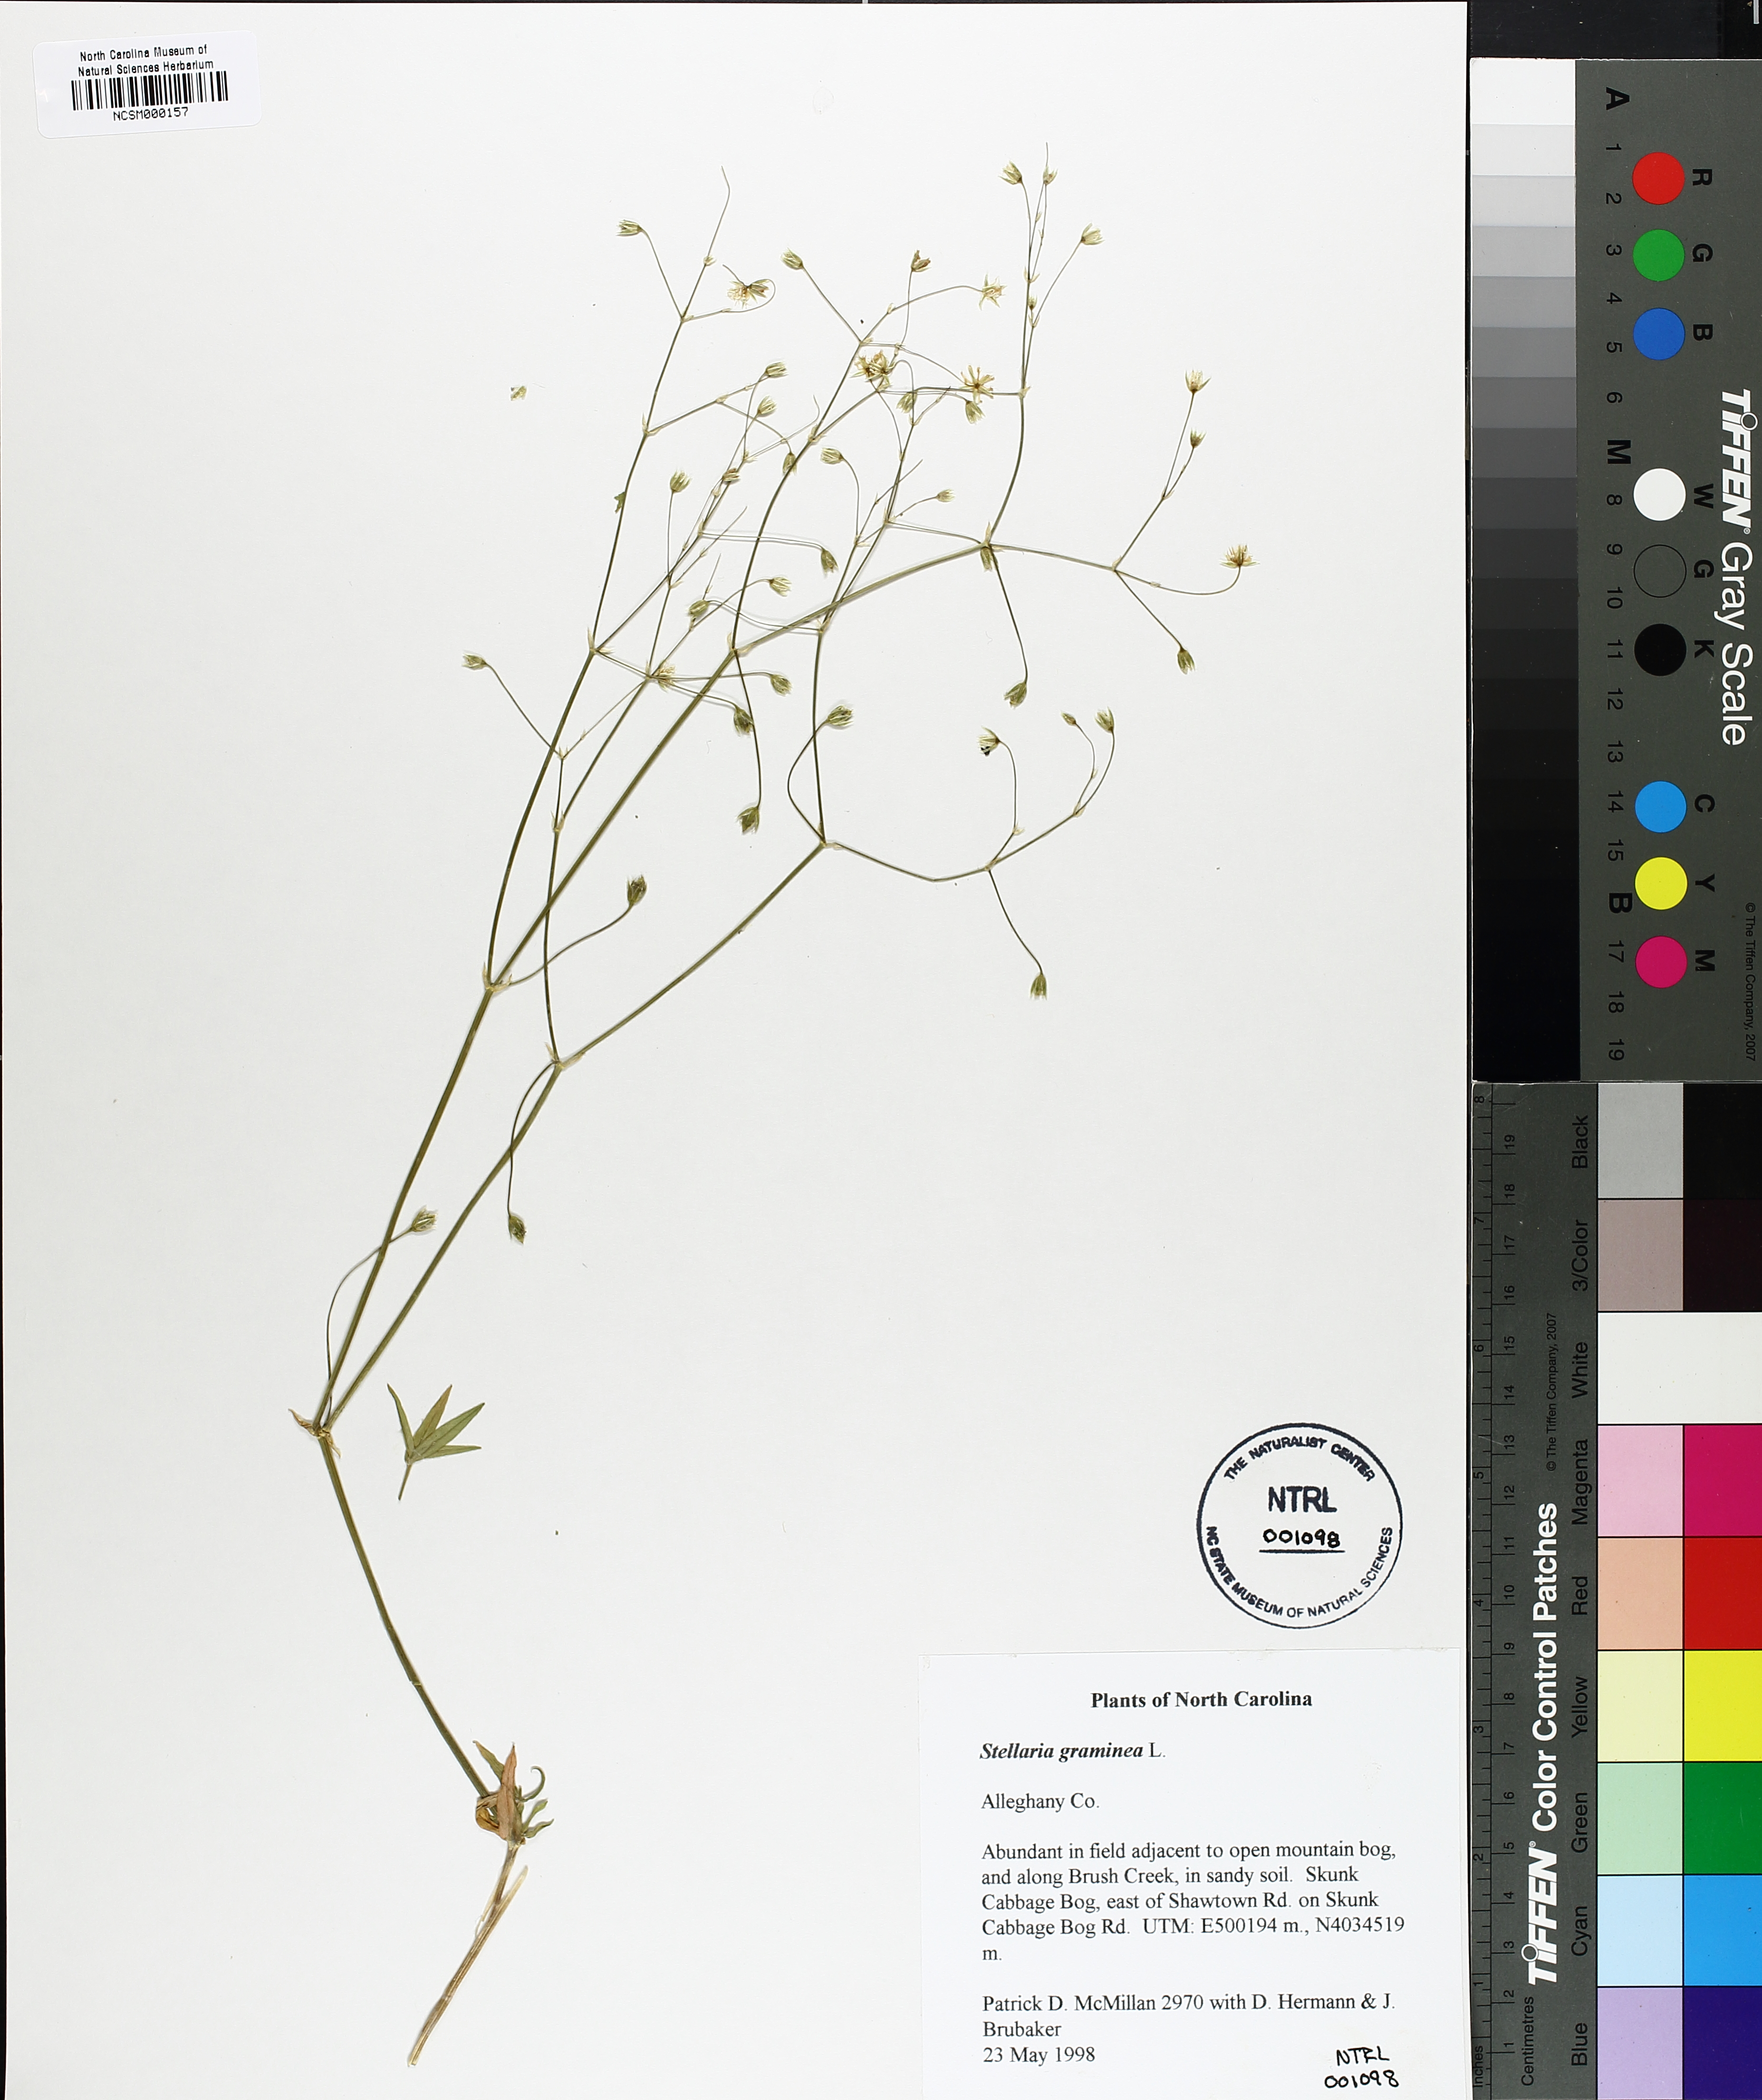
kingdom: Plantae
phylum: Tracheophyta
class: Magnoliopsida
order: Caryophyllales
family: Caryophyllaceae
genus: Stellaria
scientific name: Stellaria graminea
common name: Grass-like starwort
